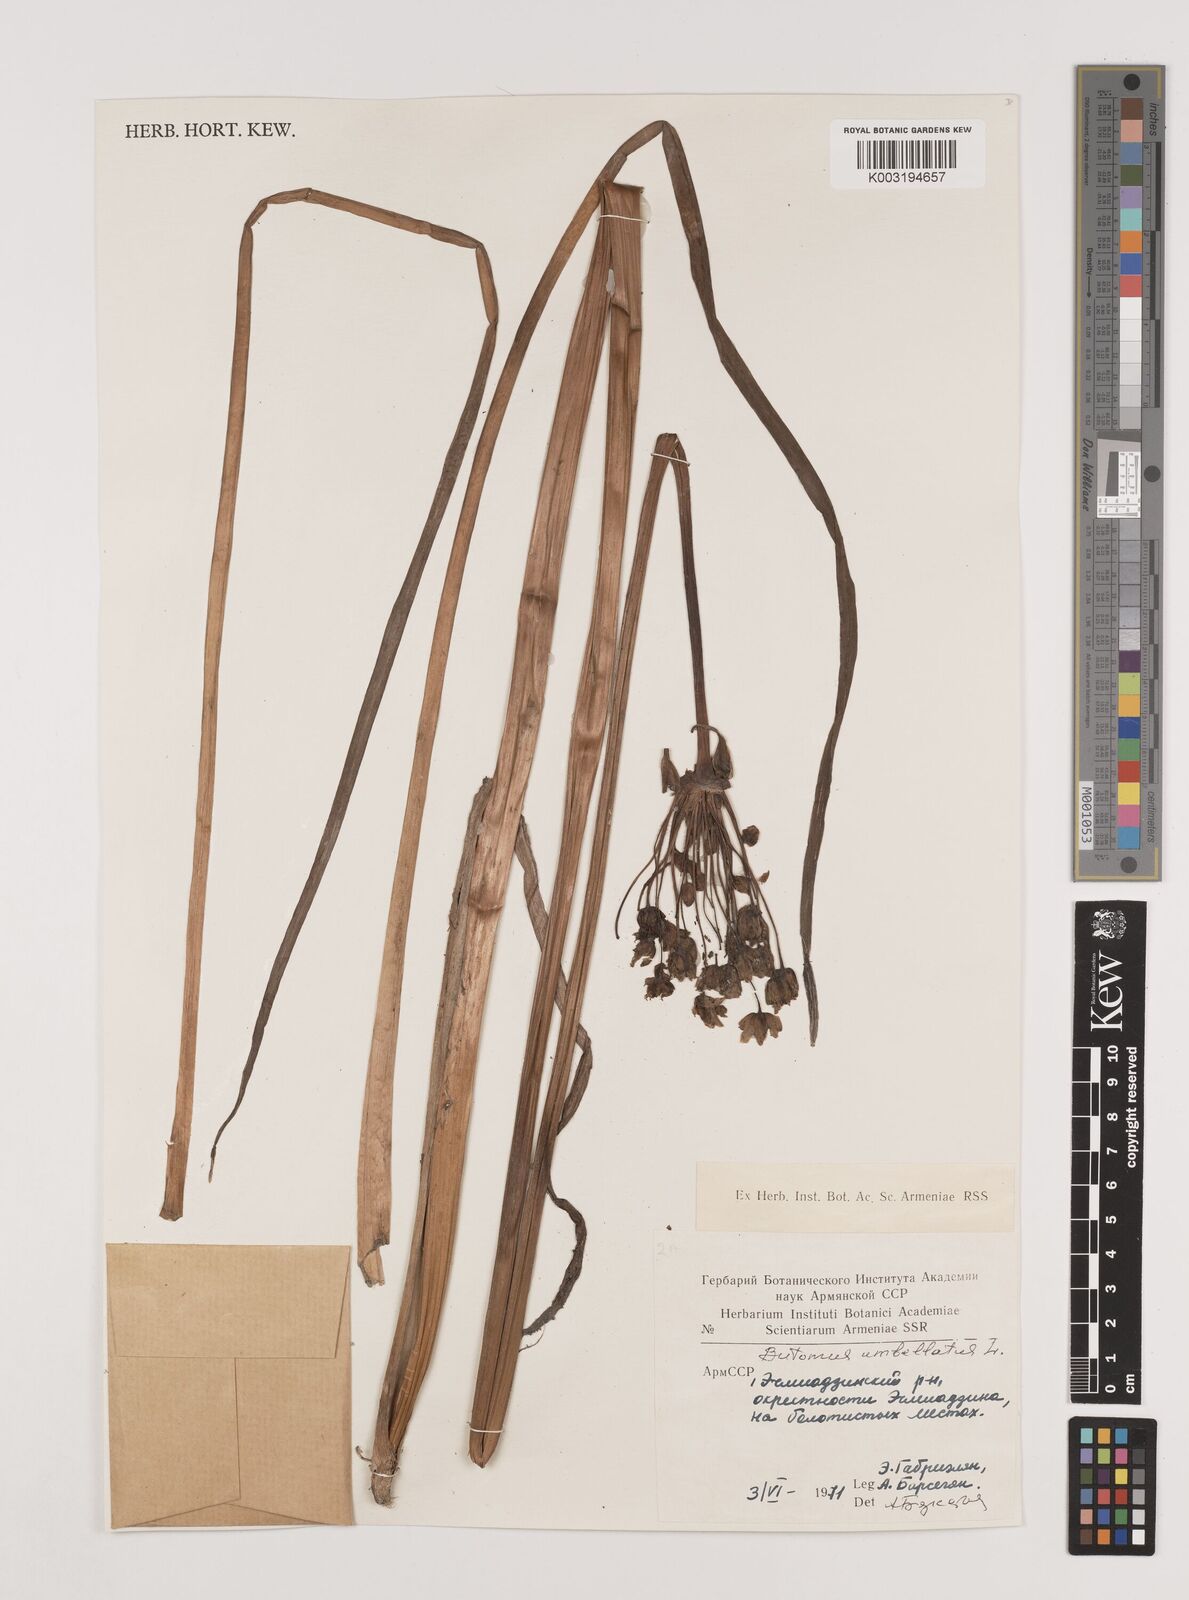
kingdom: Plantae
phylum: Tracheophyta
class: Liliopsida
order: Alismatales
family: Butomaceae
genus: Butomus
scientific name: Butomus umbellatus
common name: Flowering-rush
